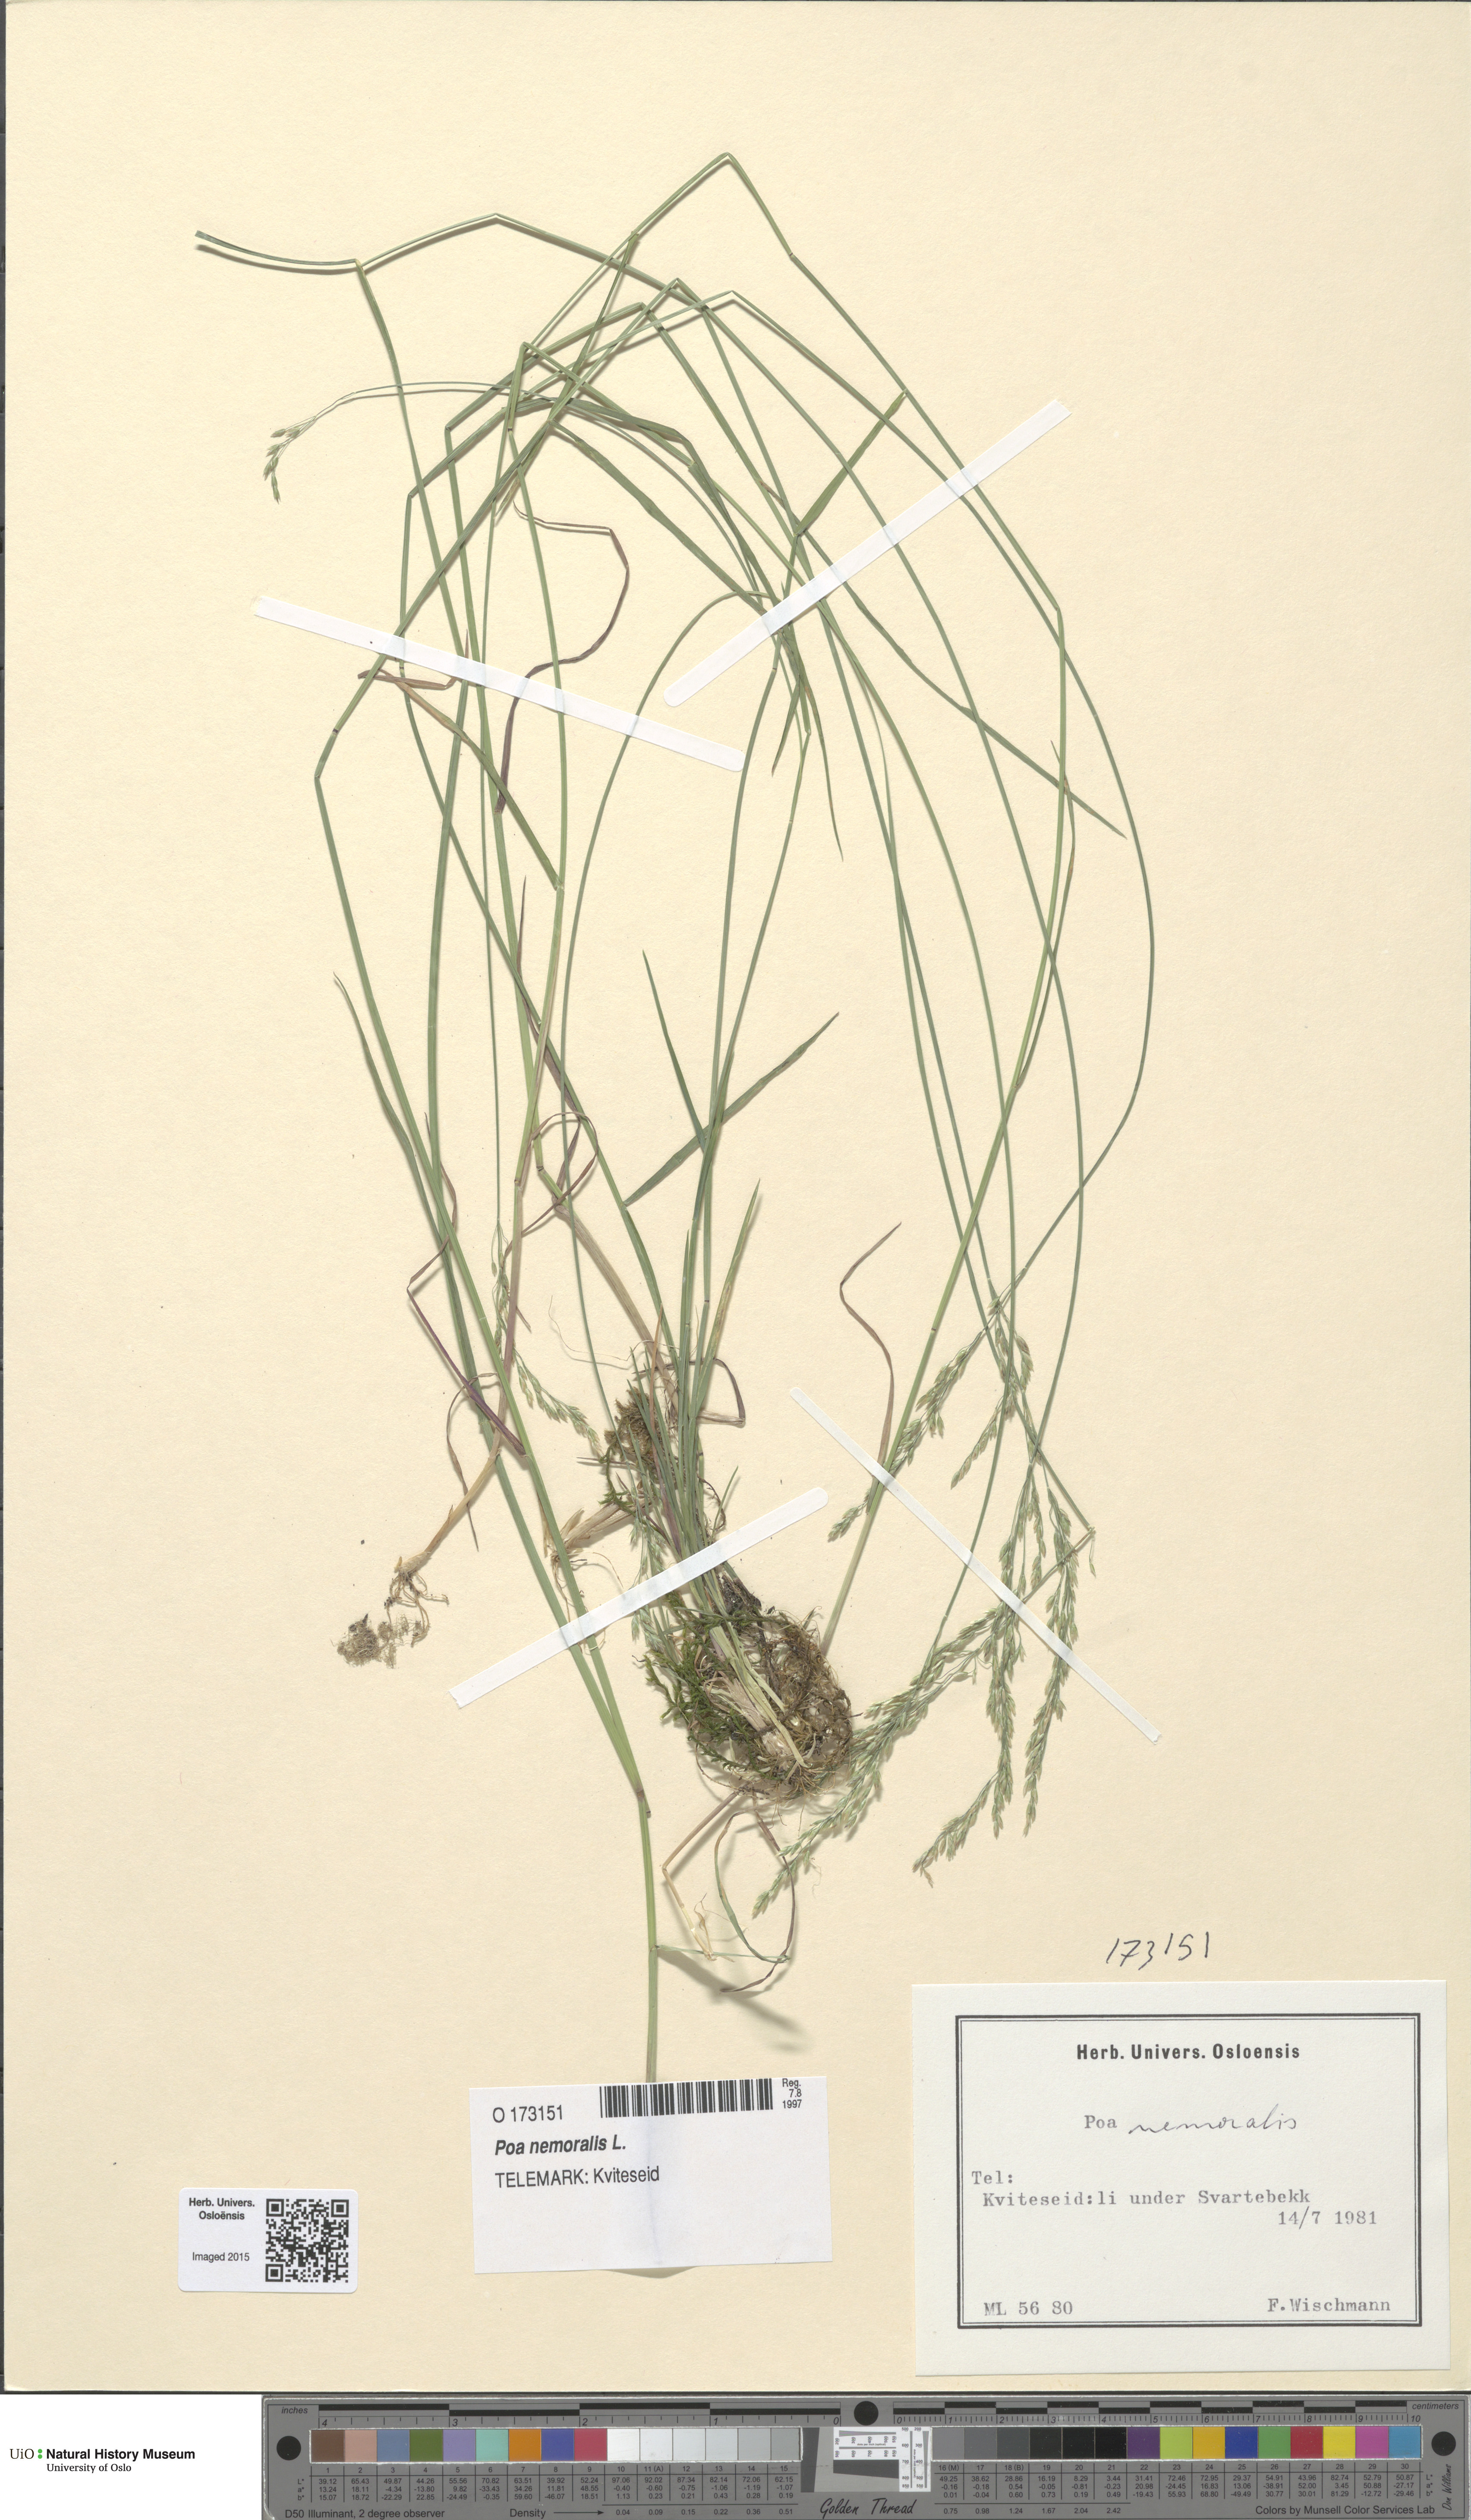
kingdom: Plantae
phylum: Tracheophyta
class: Liliopsida
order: Poales
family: Poaceae
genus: Poa
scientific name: Poa nemoralis
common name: Wood bluegrass
